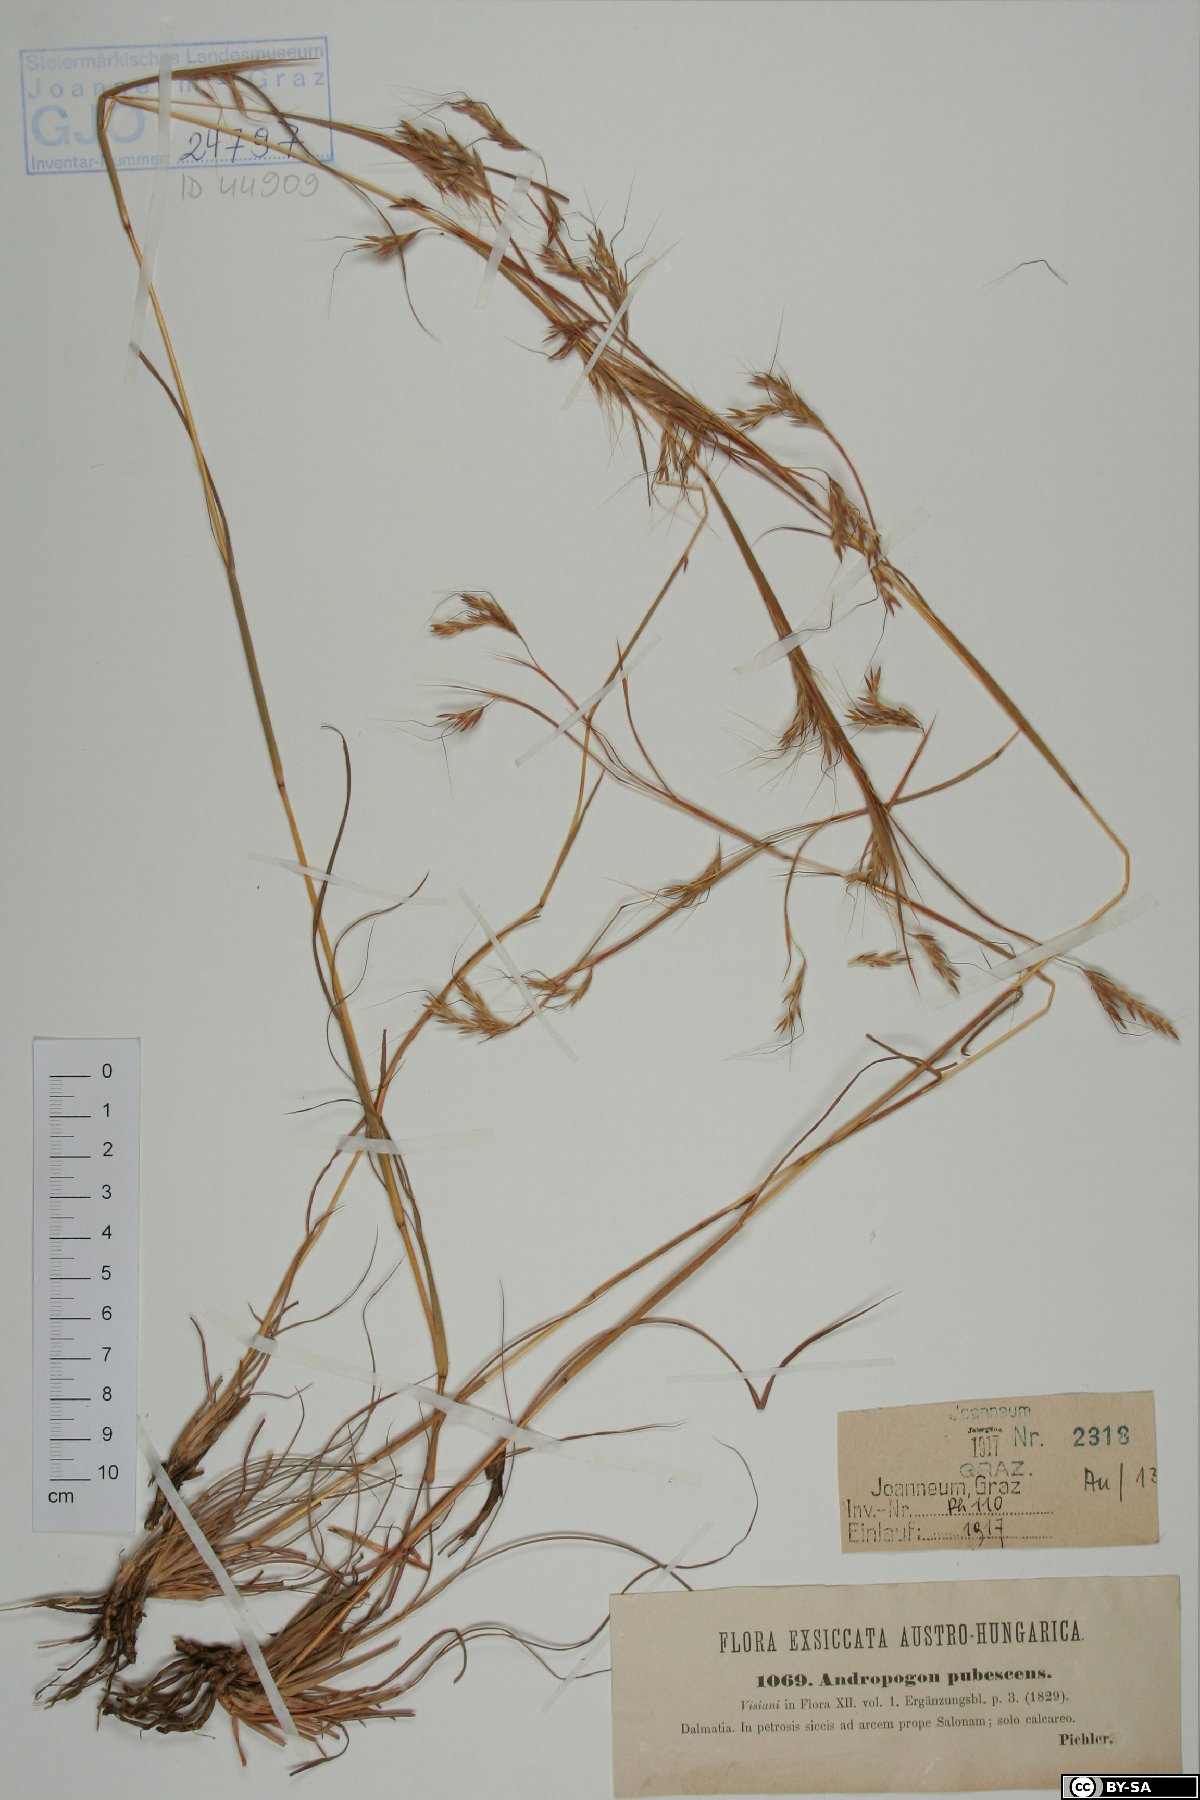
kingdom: Plantae
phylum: Tracheophyta
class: Liliopsida
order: Poales
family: Poaceae
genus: Hyparrhenia
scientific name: Hyparrhenia hirta
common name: Thatching grass
